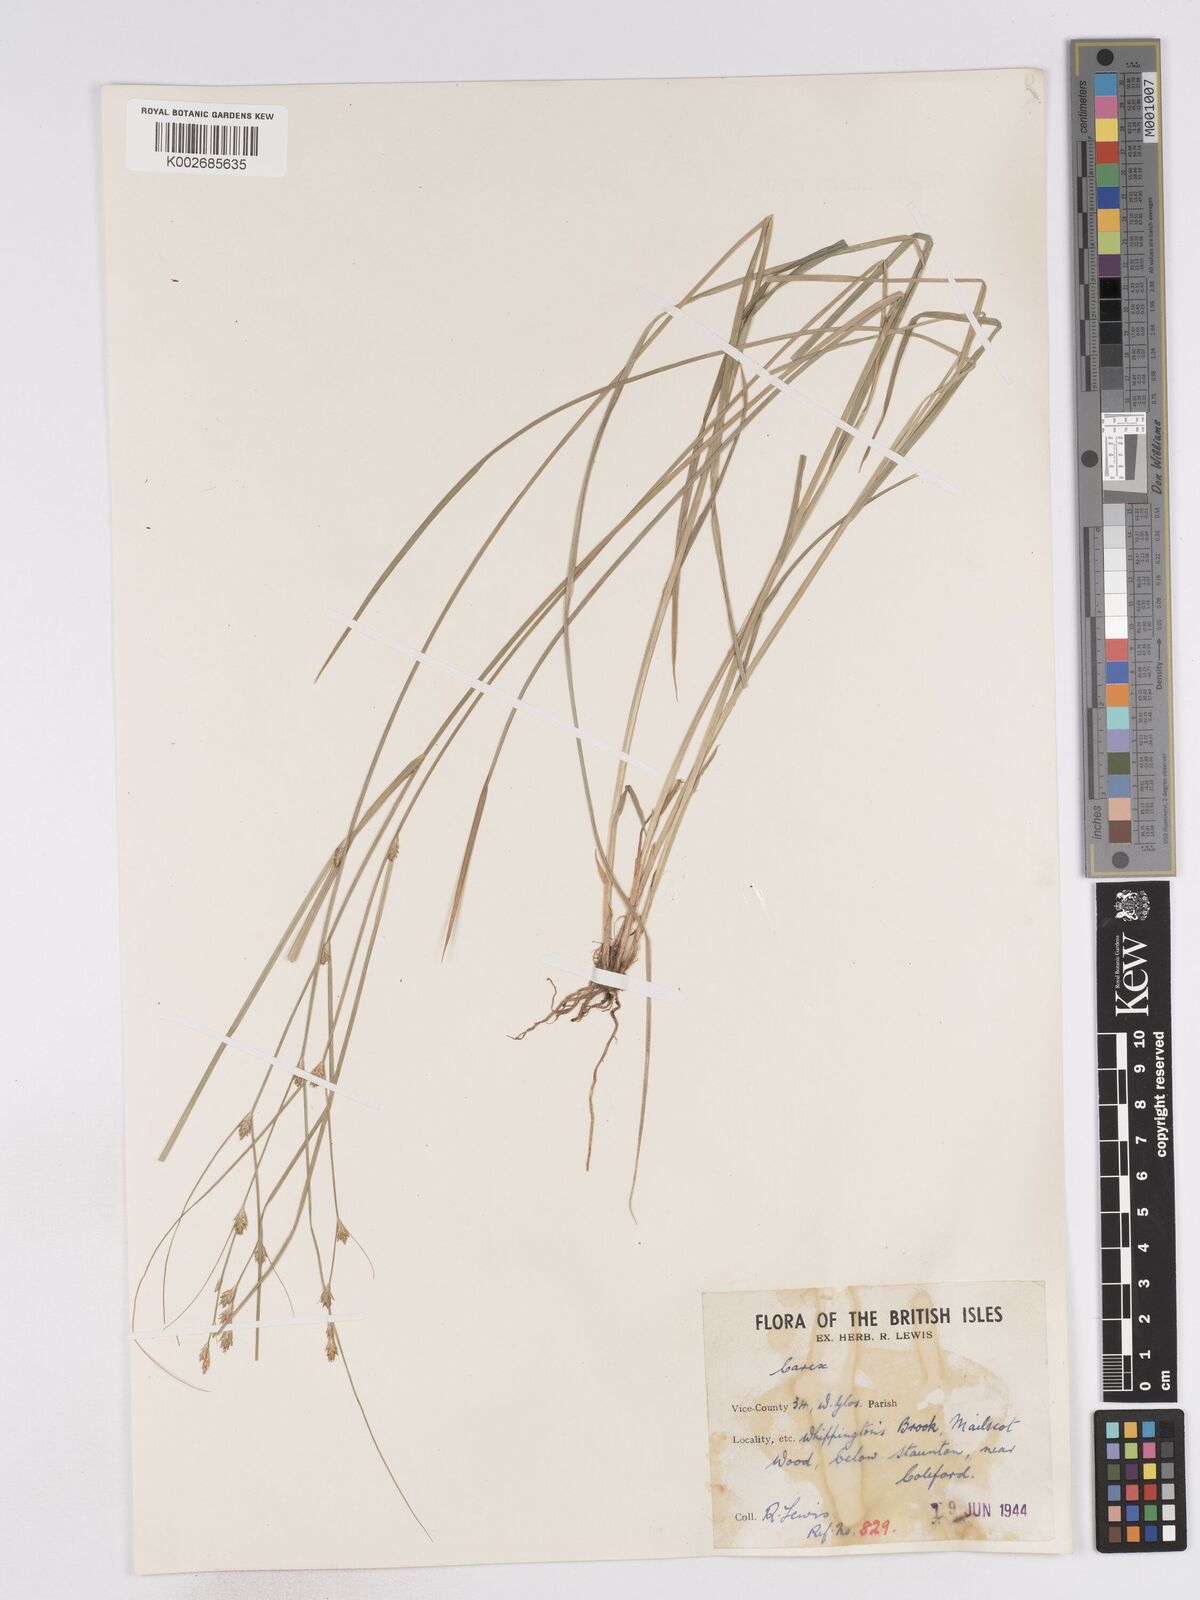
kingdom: Plantae
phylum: Tracheophyta
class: Liliopsida
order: Poales
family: Cyperaceae
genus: Carex
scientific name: Carex remota
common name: Remote sedge
